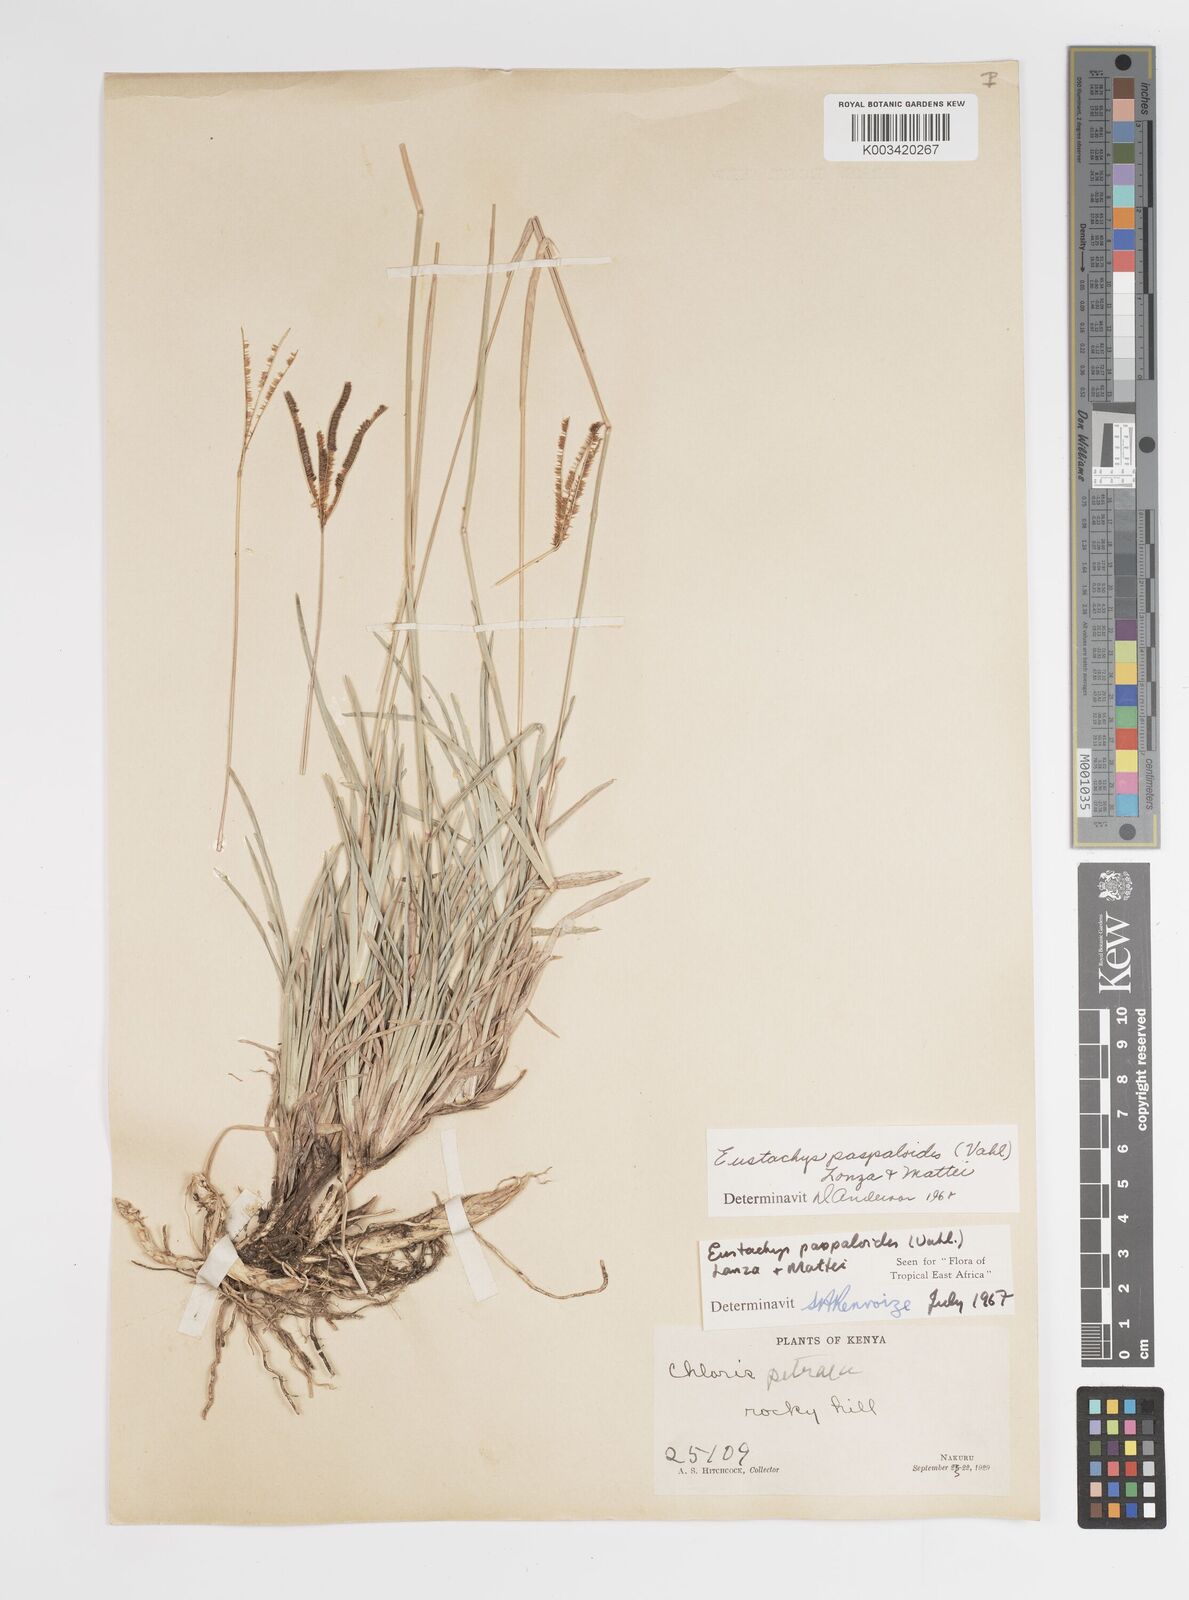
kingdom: Plantae
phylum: Tracheophyta
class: Liliopsida
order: Poales
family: Poaceae
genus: Eustachys
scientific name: Eustachys paspaloides
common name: Caribbean fingergrass
